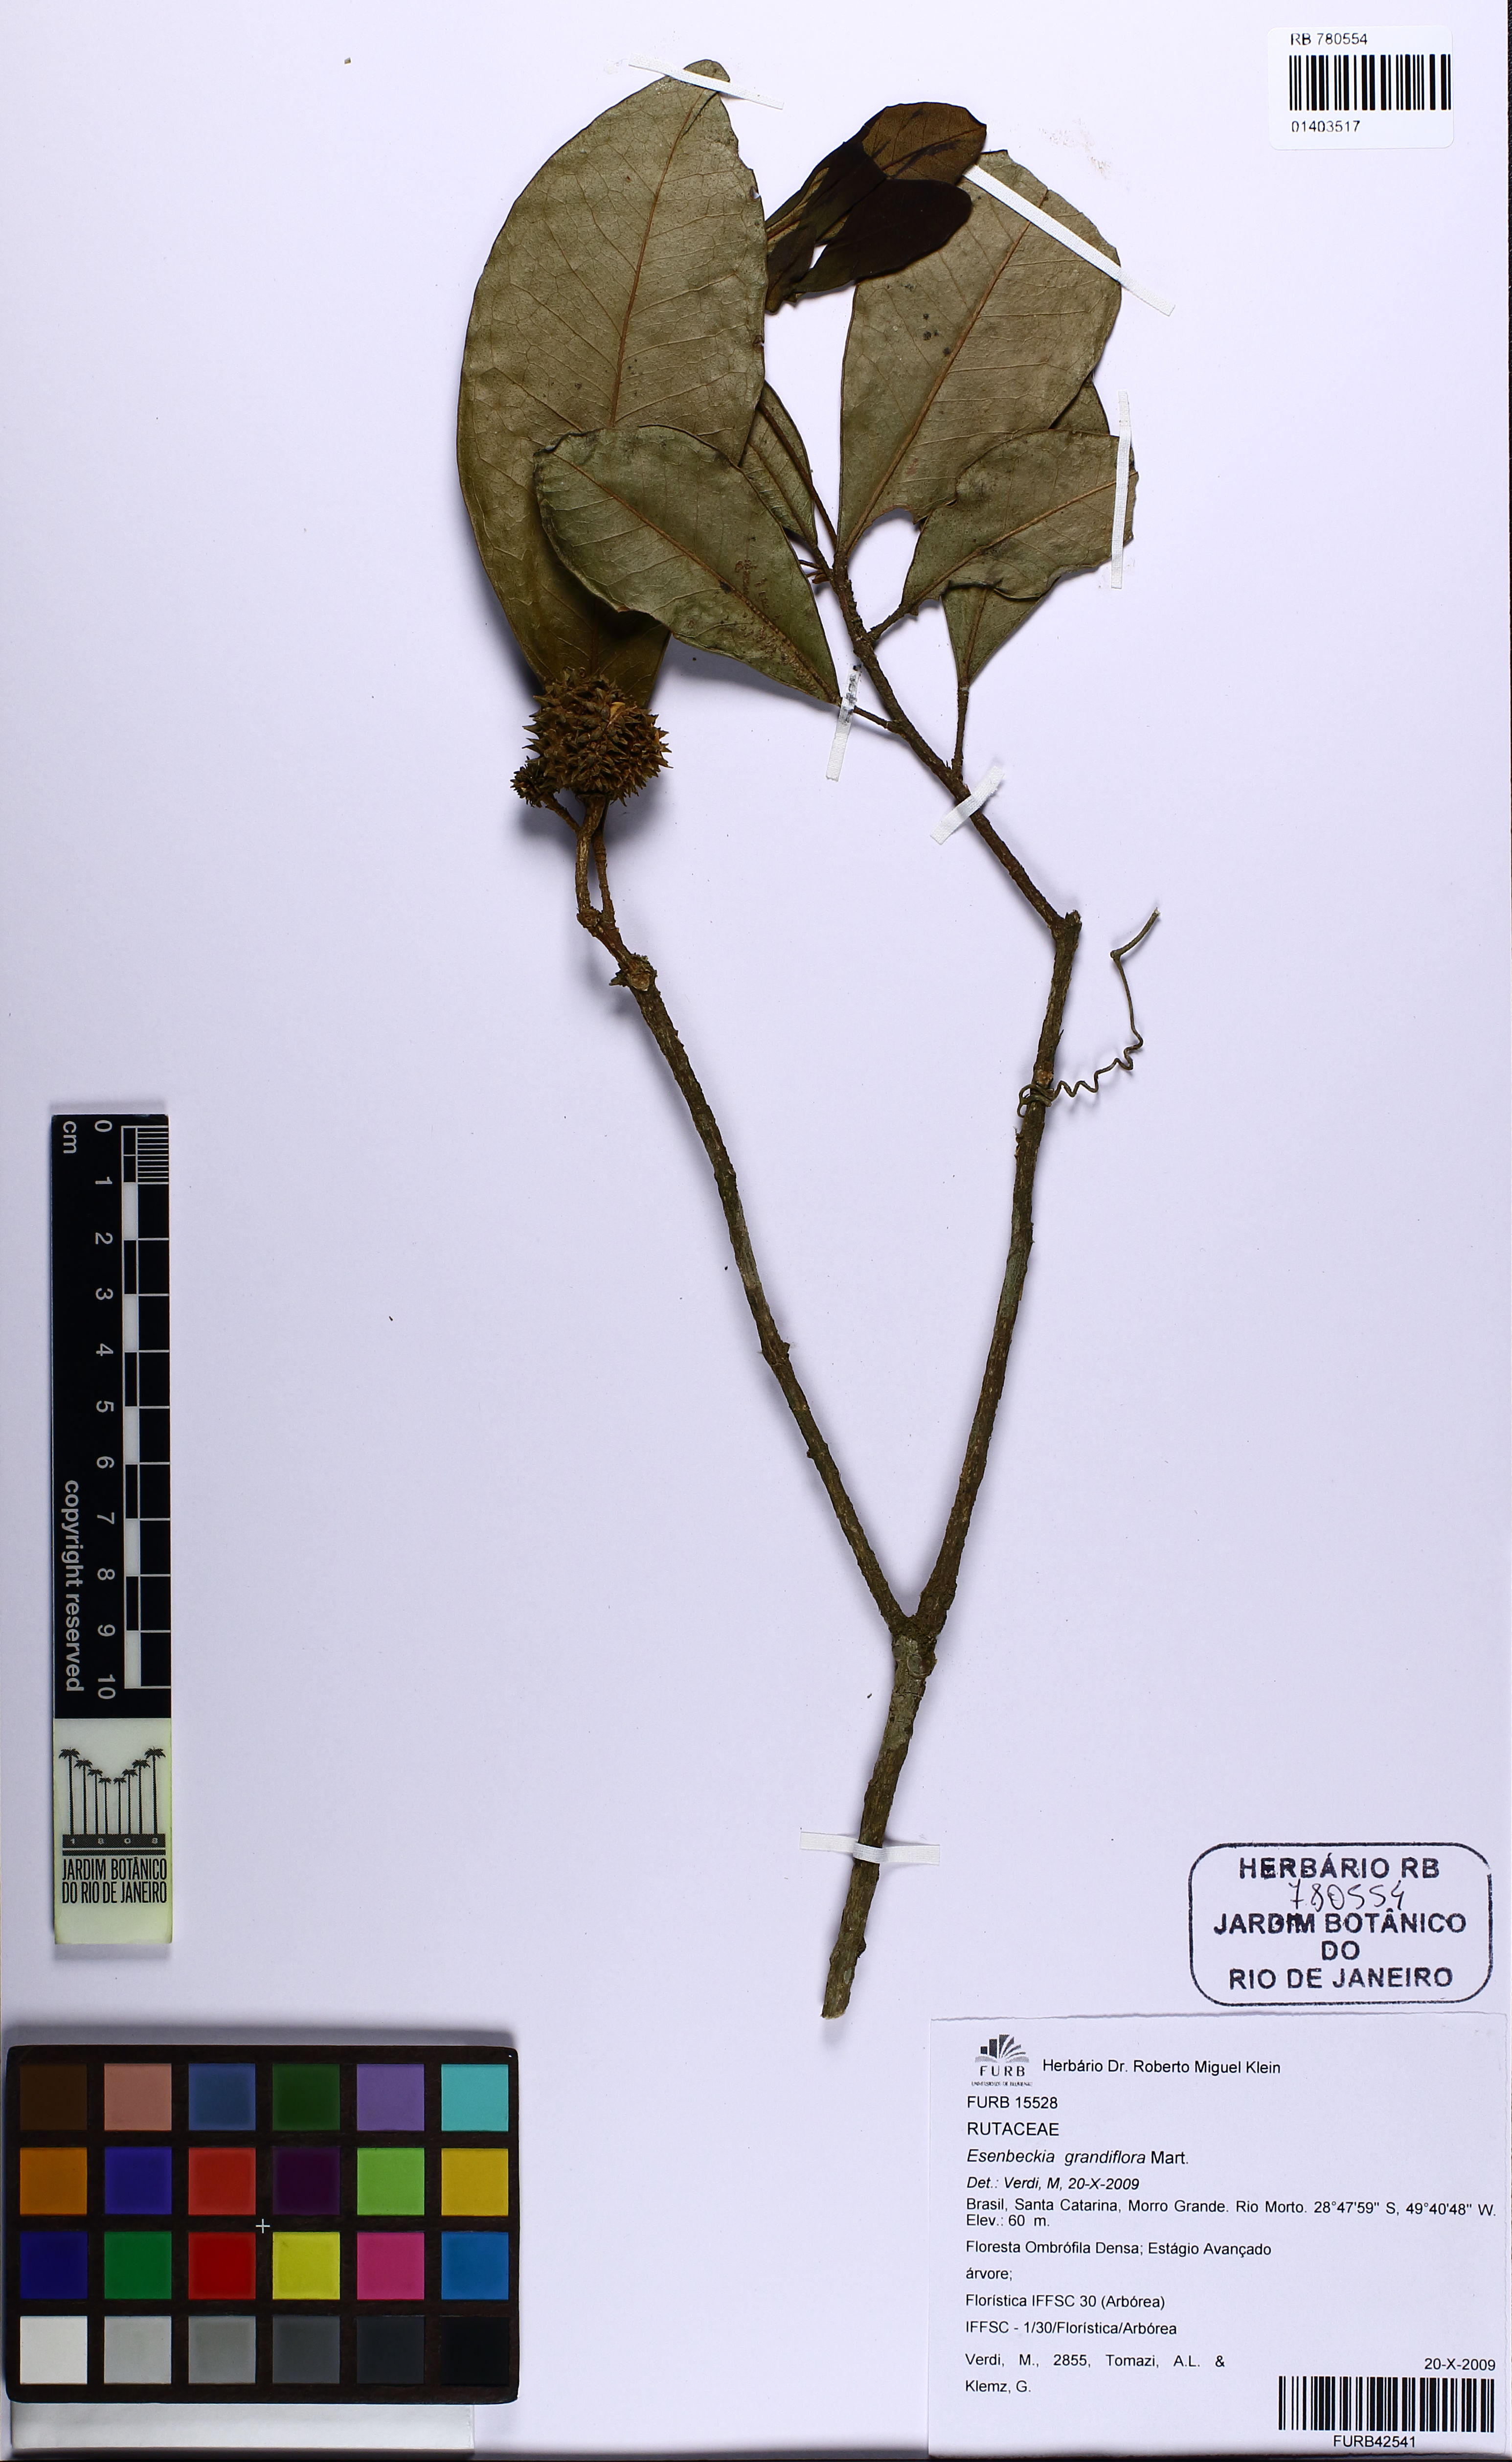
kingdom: Plantae
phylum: Tracheophyta
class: Magnoliopsida
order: Sapindales
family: Rutaceae
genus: Esenbeckia
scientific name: Esenbeckia grandiflora
